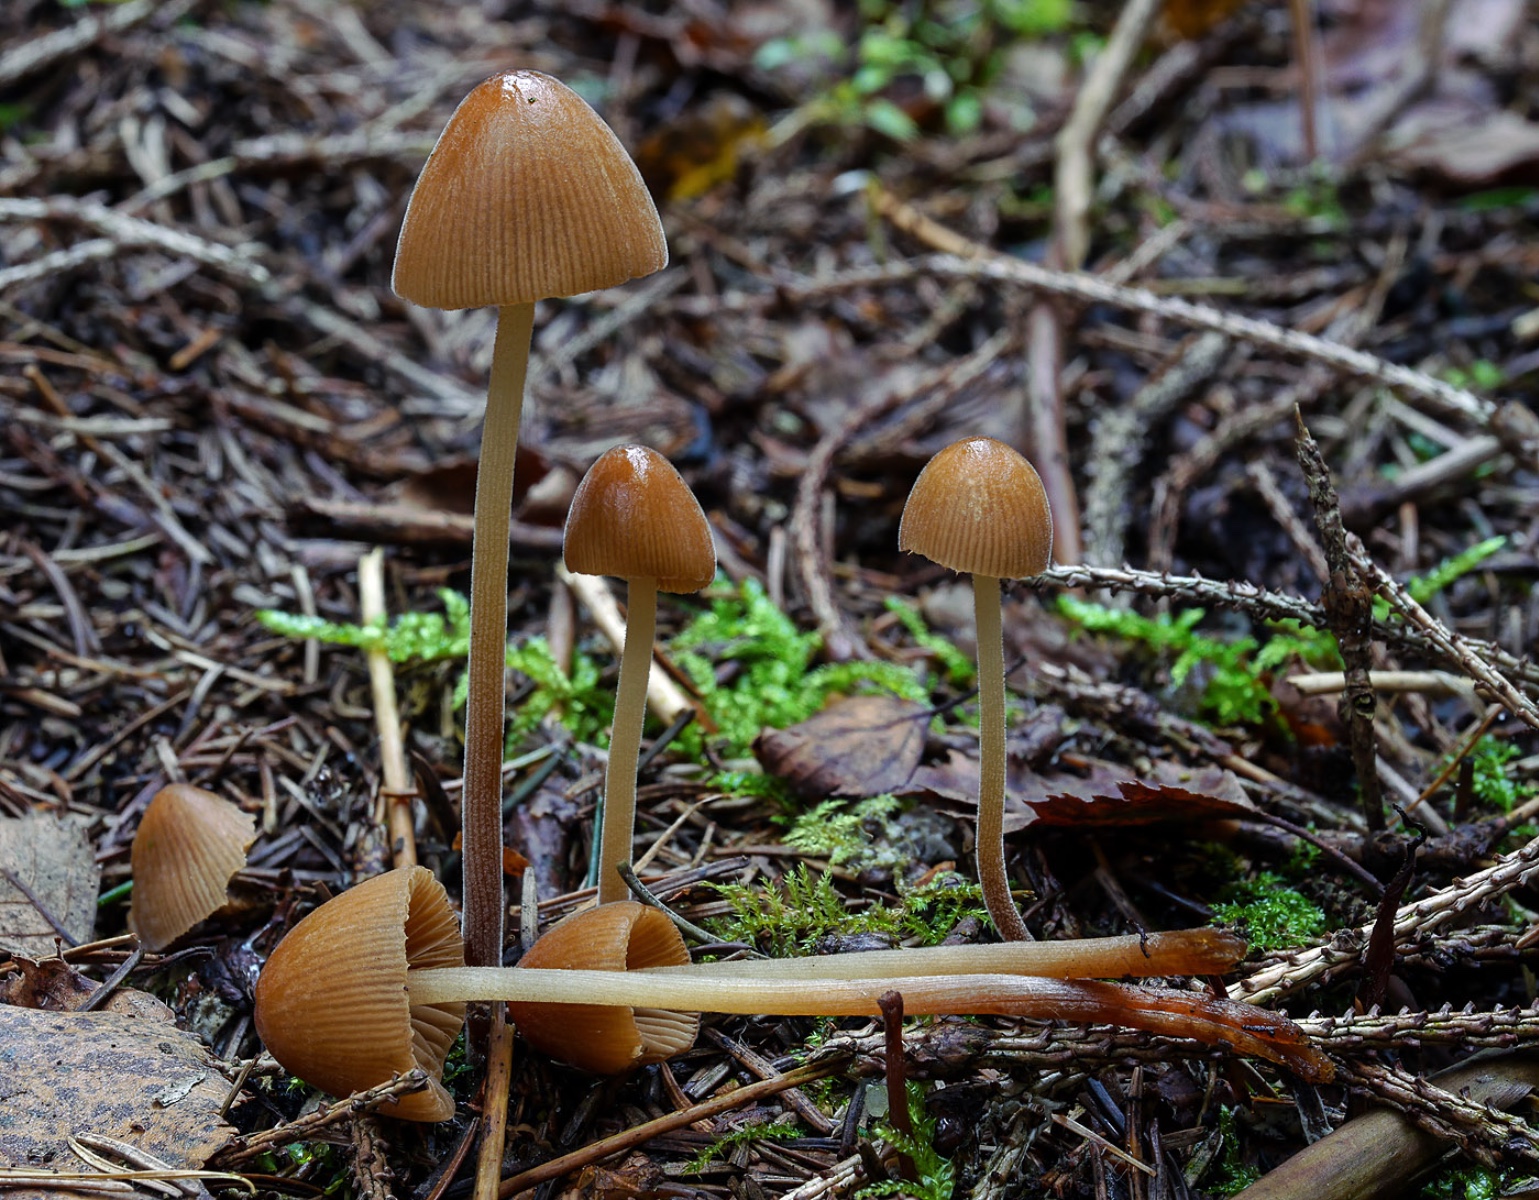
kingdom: Fungi
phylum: Basidiomycota
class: Agaricomycetes
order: Agaricales
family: Bolbitiaceae
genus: Conocybe
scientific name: Conocybe subpubescens
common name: krat-keglehat
